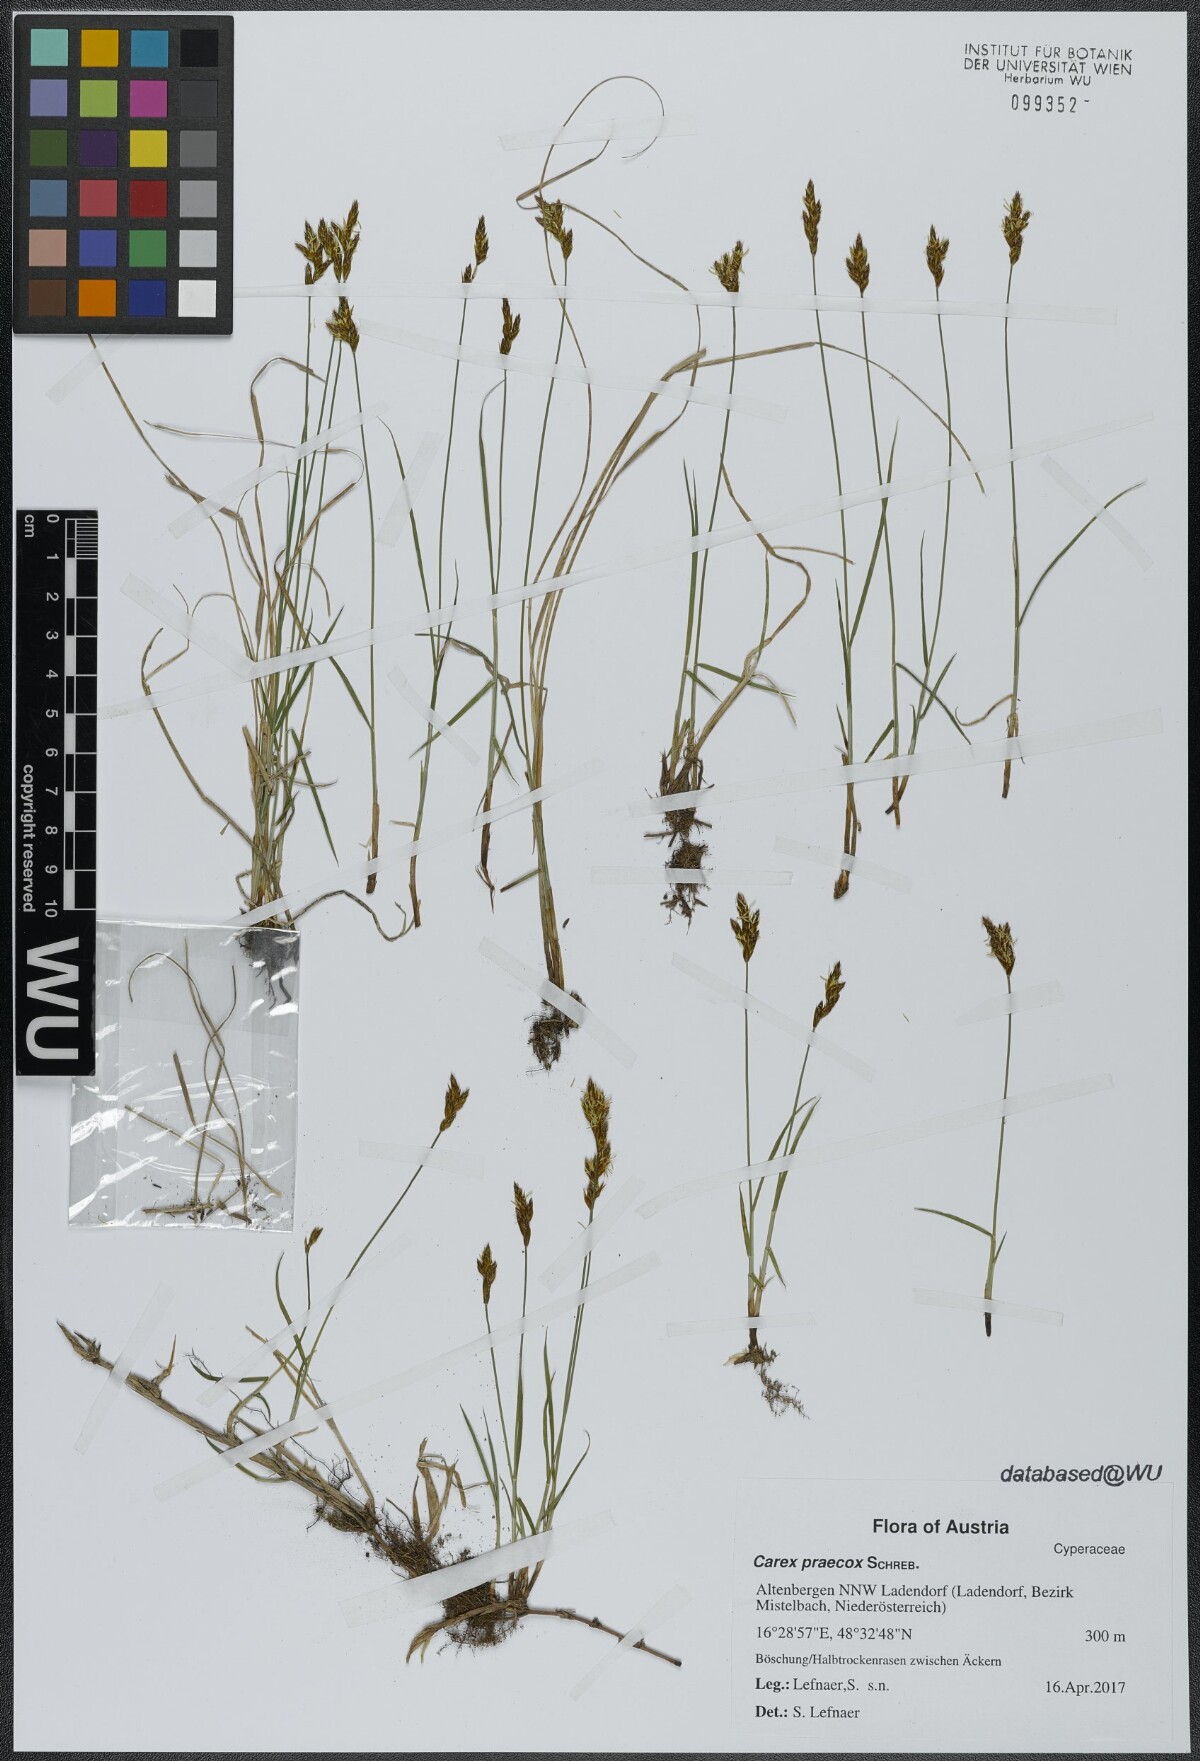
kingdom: Plantae
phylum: Tracheophyta
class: Liliopsida
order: Poales
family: Cyperaceae
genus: Carex
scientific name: Carex praecox
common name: Early sedge
